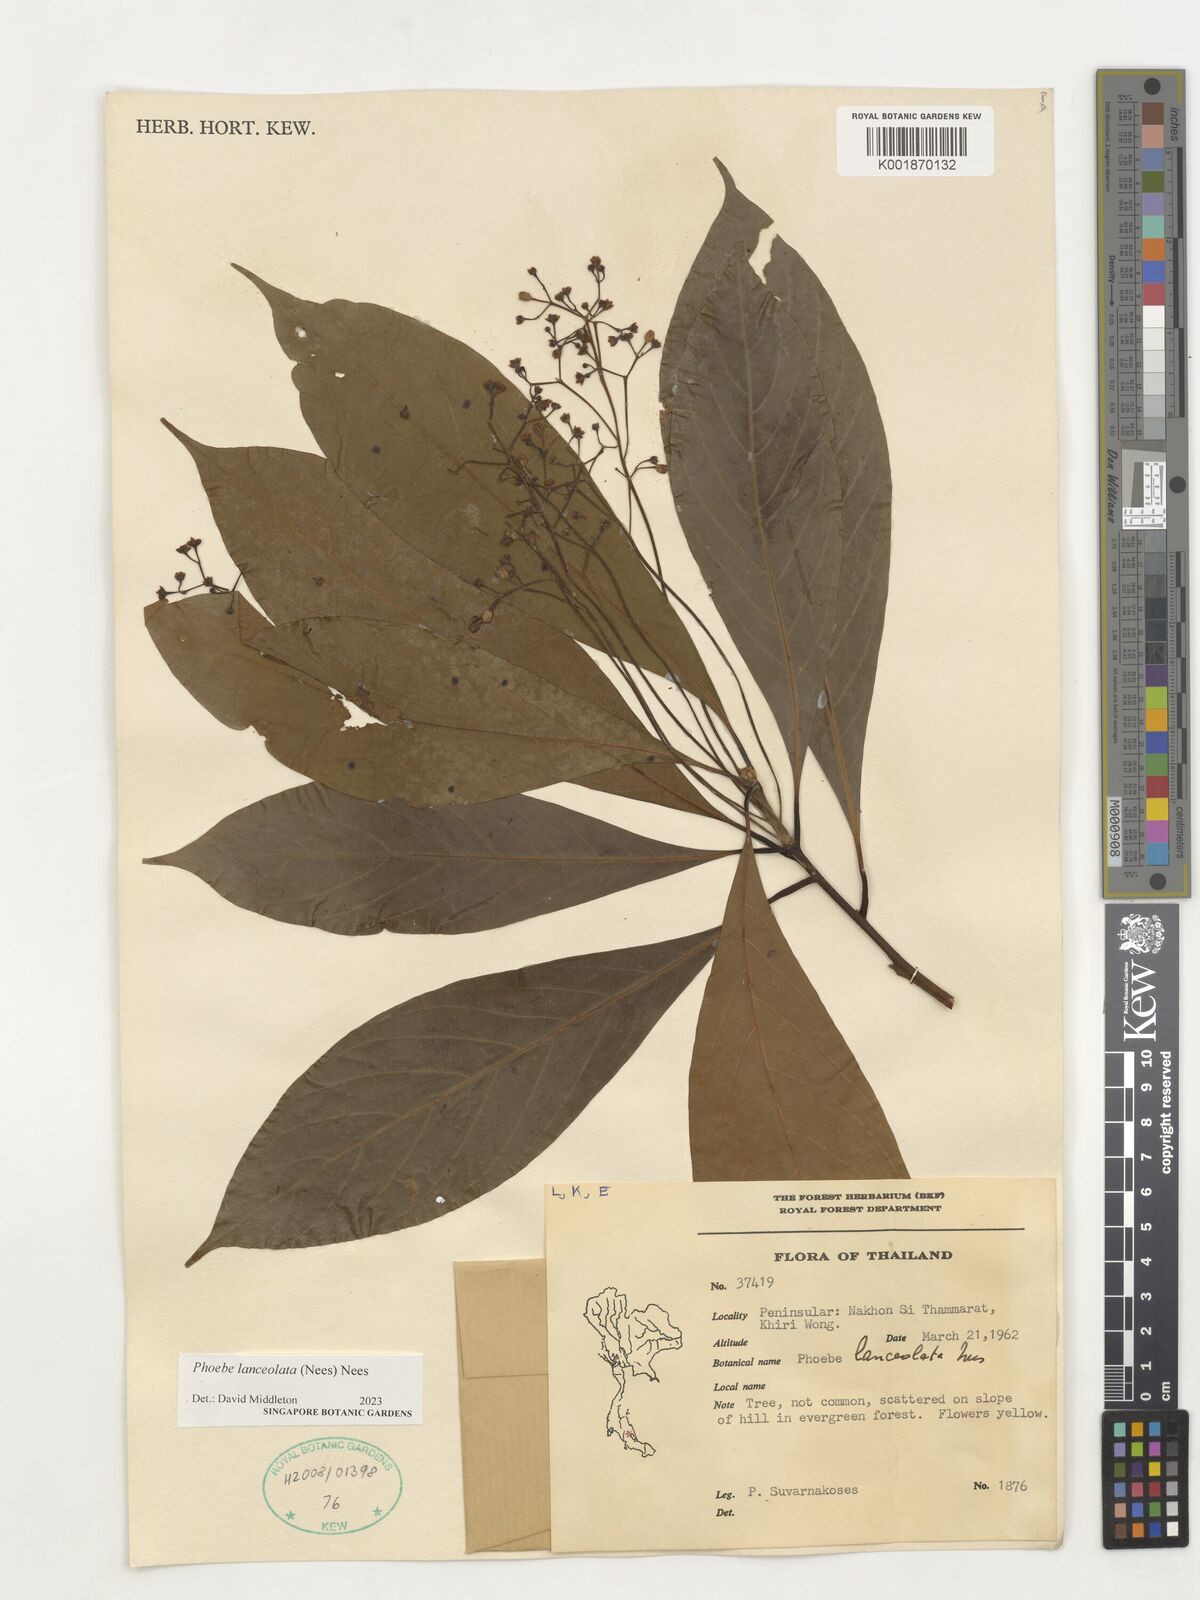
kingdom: Plantae
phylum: Tracheophyta
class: Magnoliopsida
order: Laurales
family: Lauraceae
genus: Phoebe
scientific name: Phoebe lanceolata
